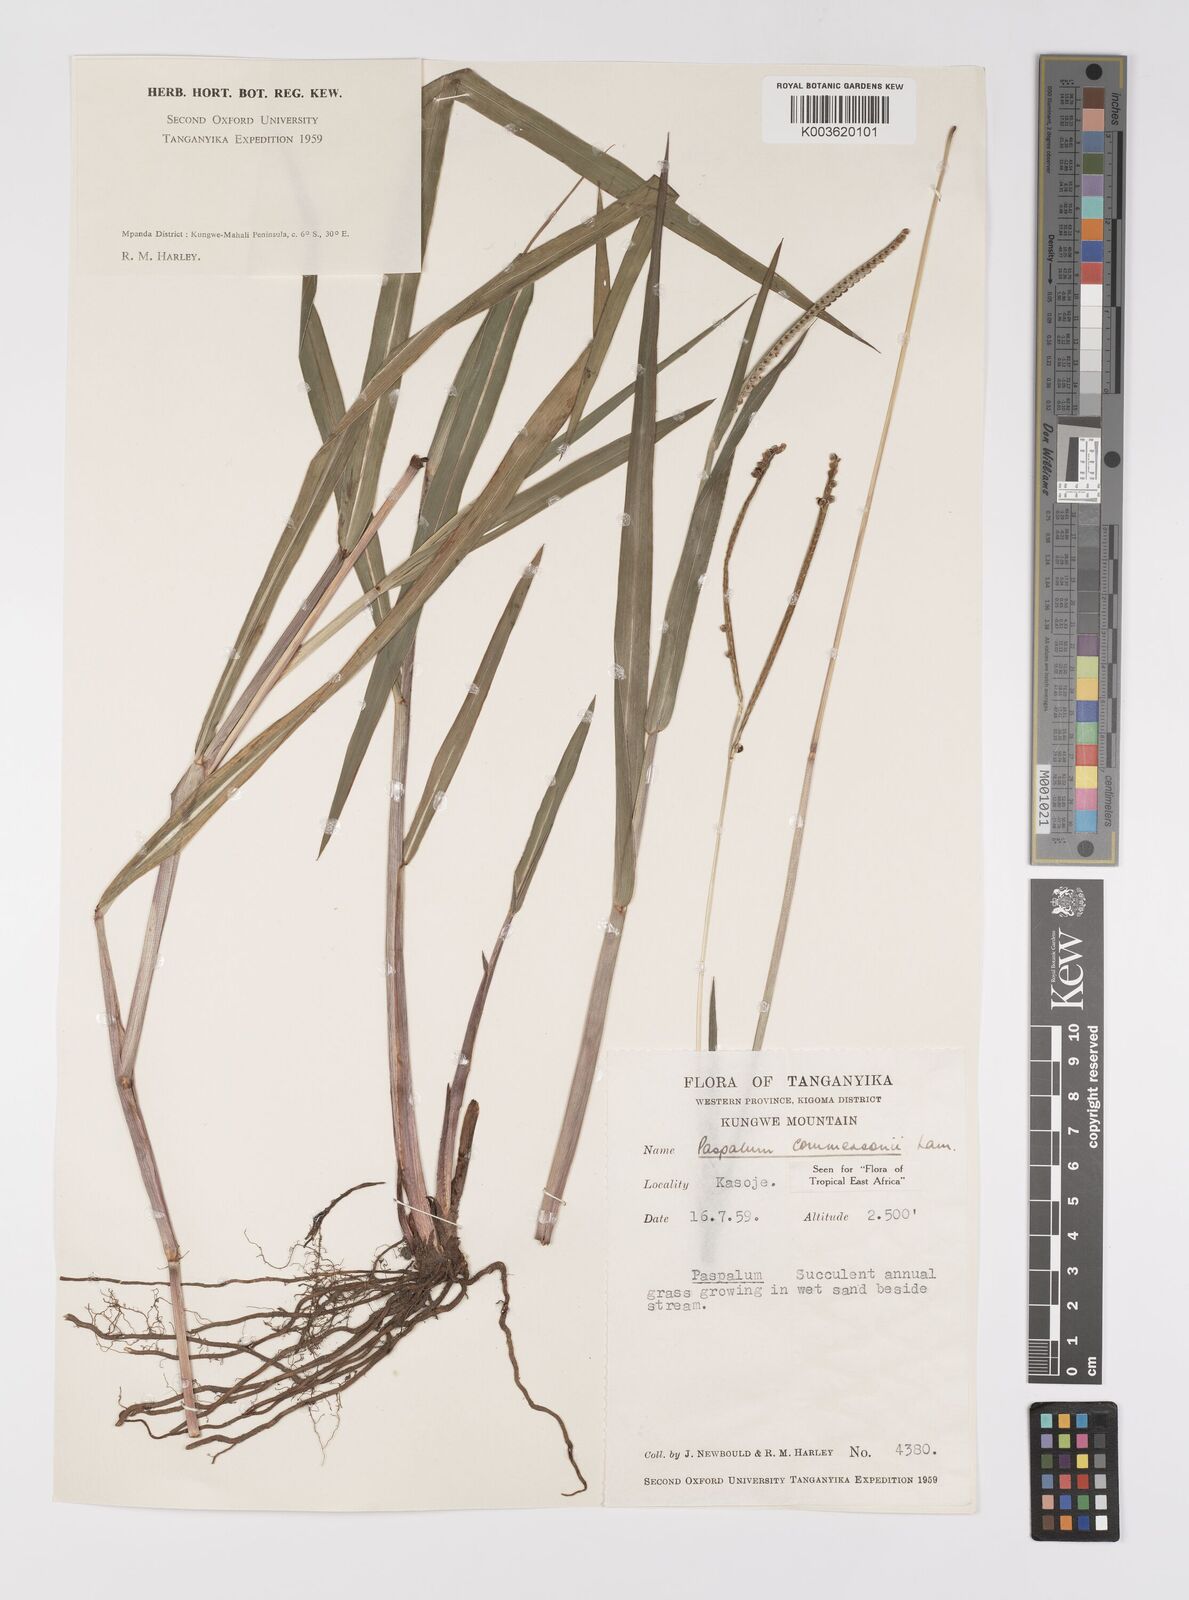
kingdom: Plantae
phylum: Tracheophyta
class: Liliopsida
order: Poales
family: Poaceae
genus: Paspalum
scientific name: Paspalum scrobiculatum
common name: Kodo millet
